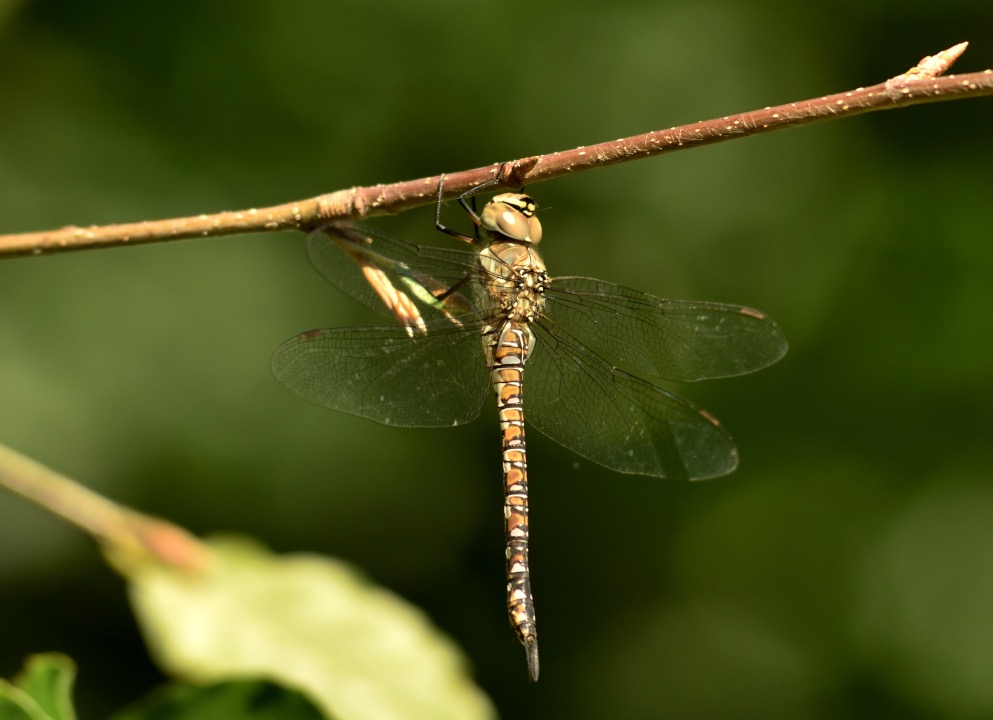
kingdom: Animalia
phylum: Arthropoda
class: Insecta
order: Odonata
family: Aeshnidae
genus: Aeshna
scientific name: Aeshna mixta
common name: Efterårs-mosaikguldsmed
